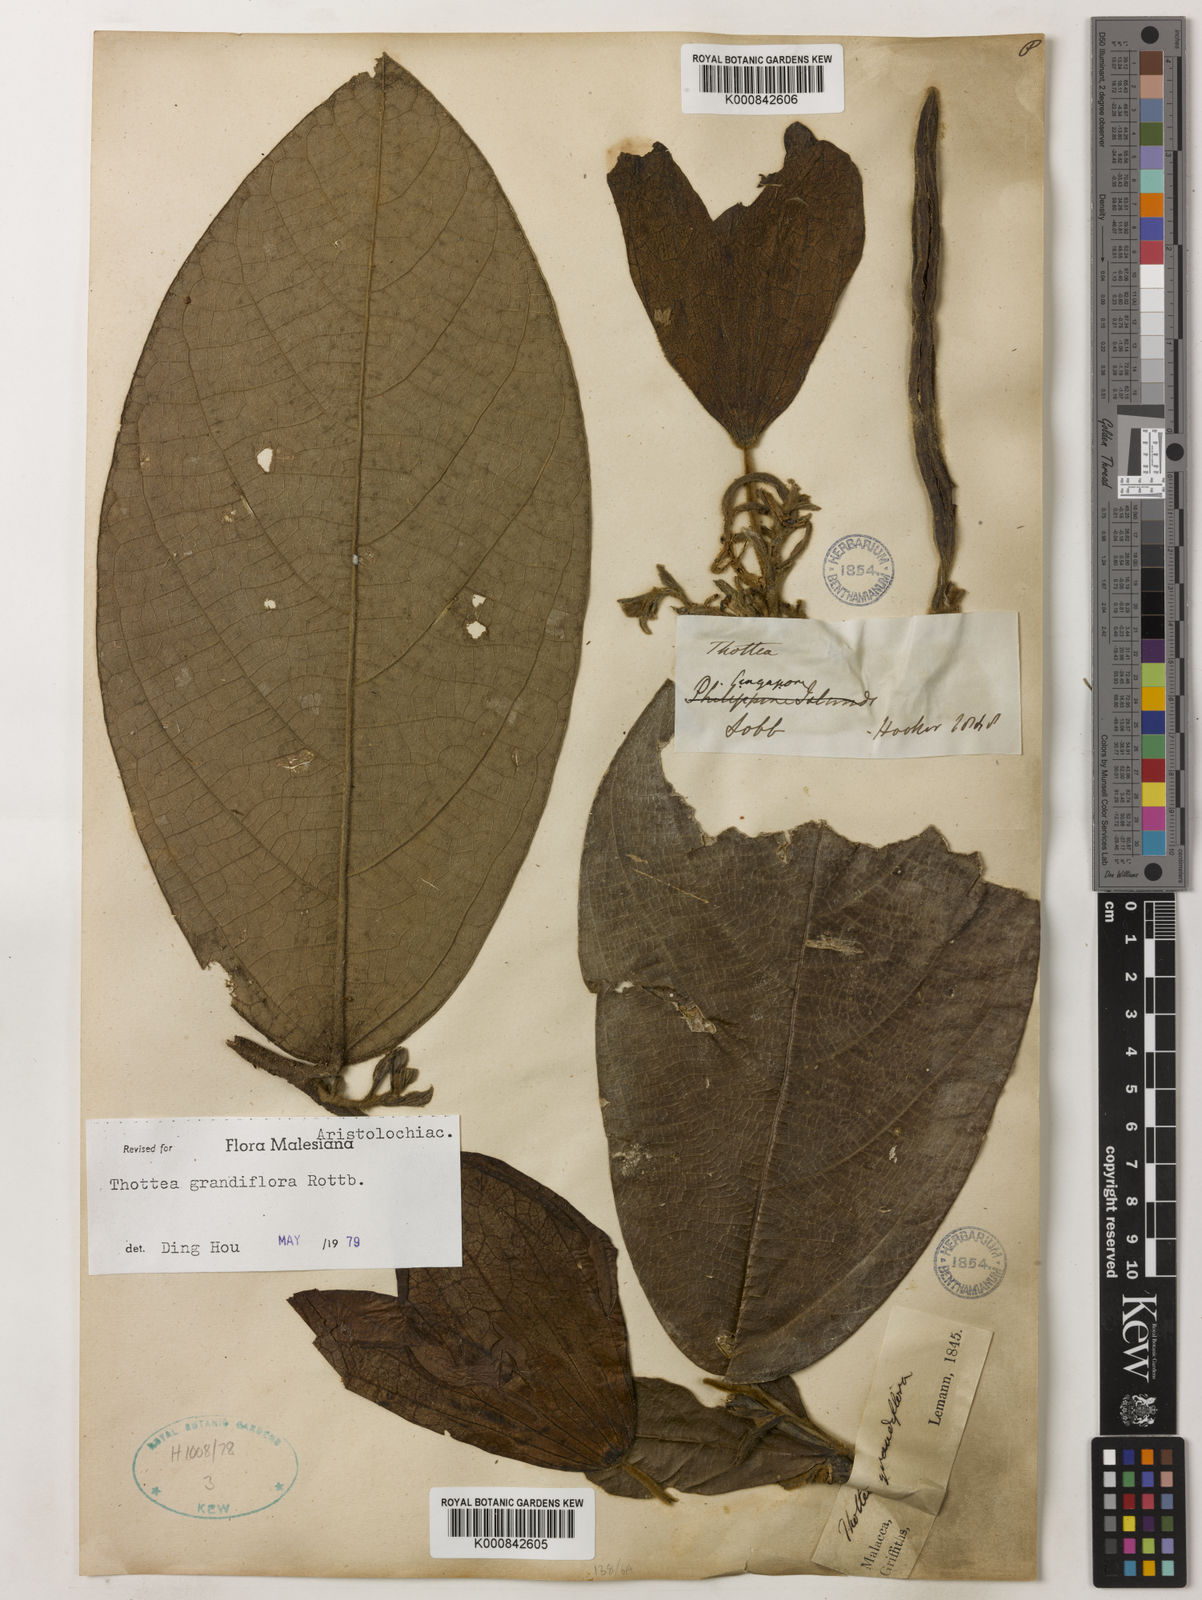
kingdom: Plantae
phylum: Tracheophyta
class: Magnoliopsida
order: Piperales
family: Aristolochiaceae
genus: Thottea
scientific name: Thottea grandiflora
